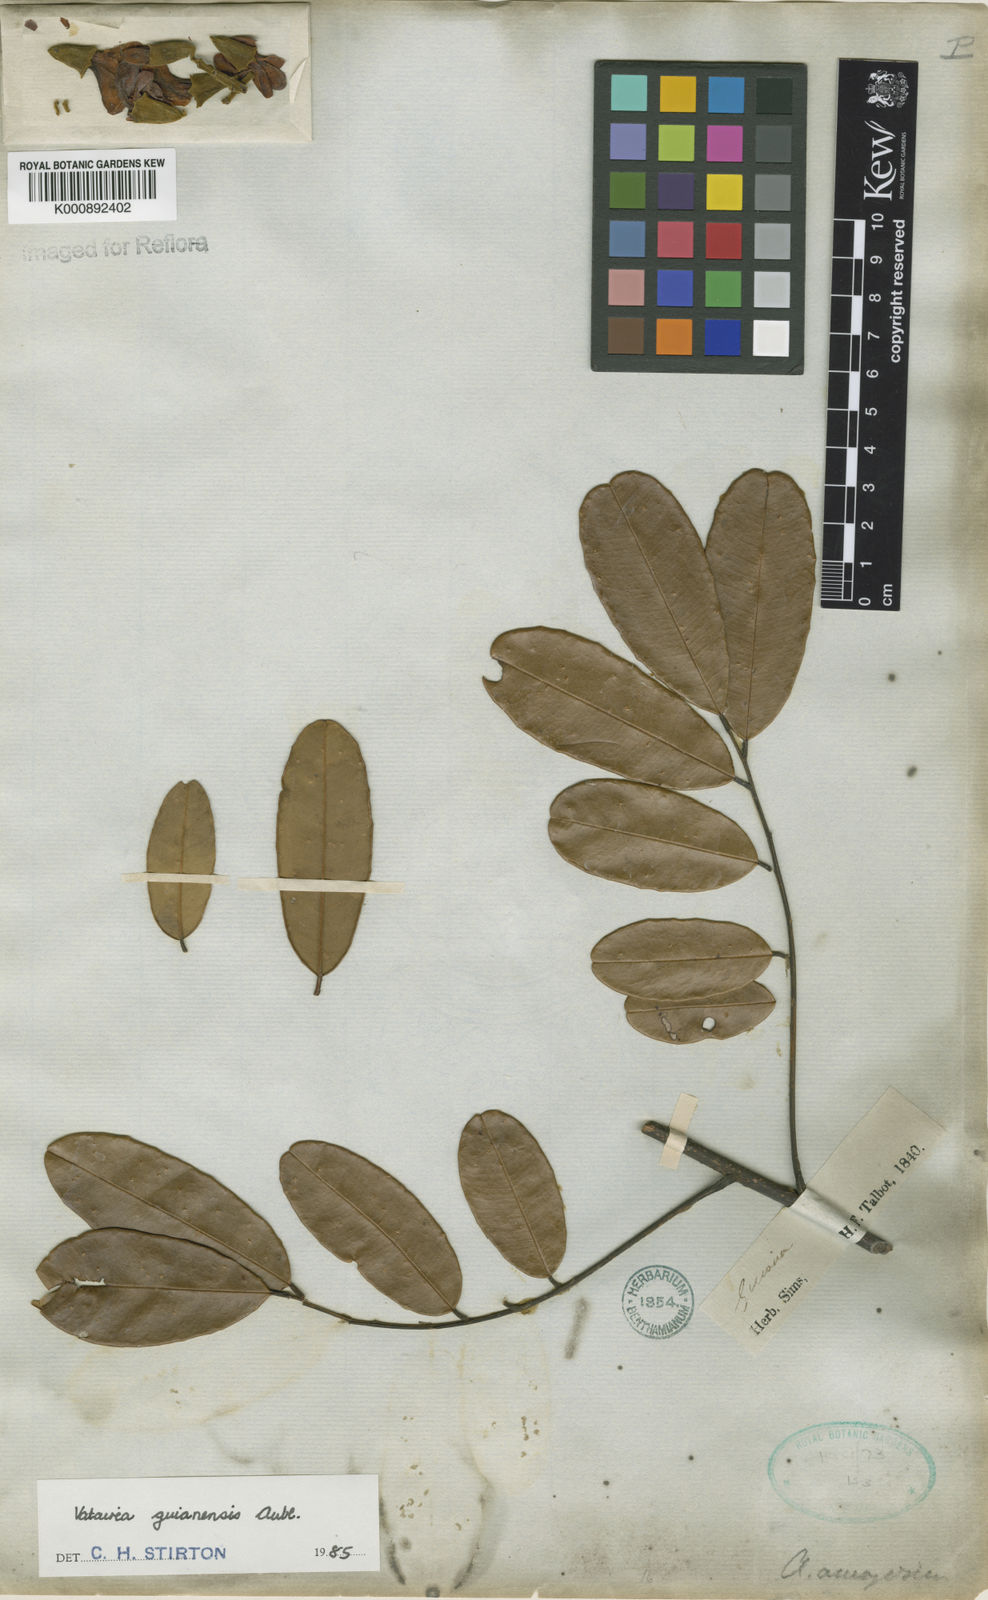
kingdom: Plantae
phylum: Tracheophyta
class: Magnoliopsida
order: Fabales
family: Fabaceae
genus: Vatairea
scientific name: Vatairea guianensis
